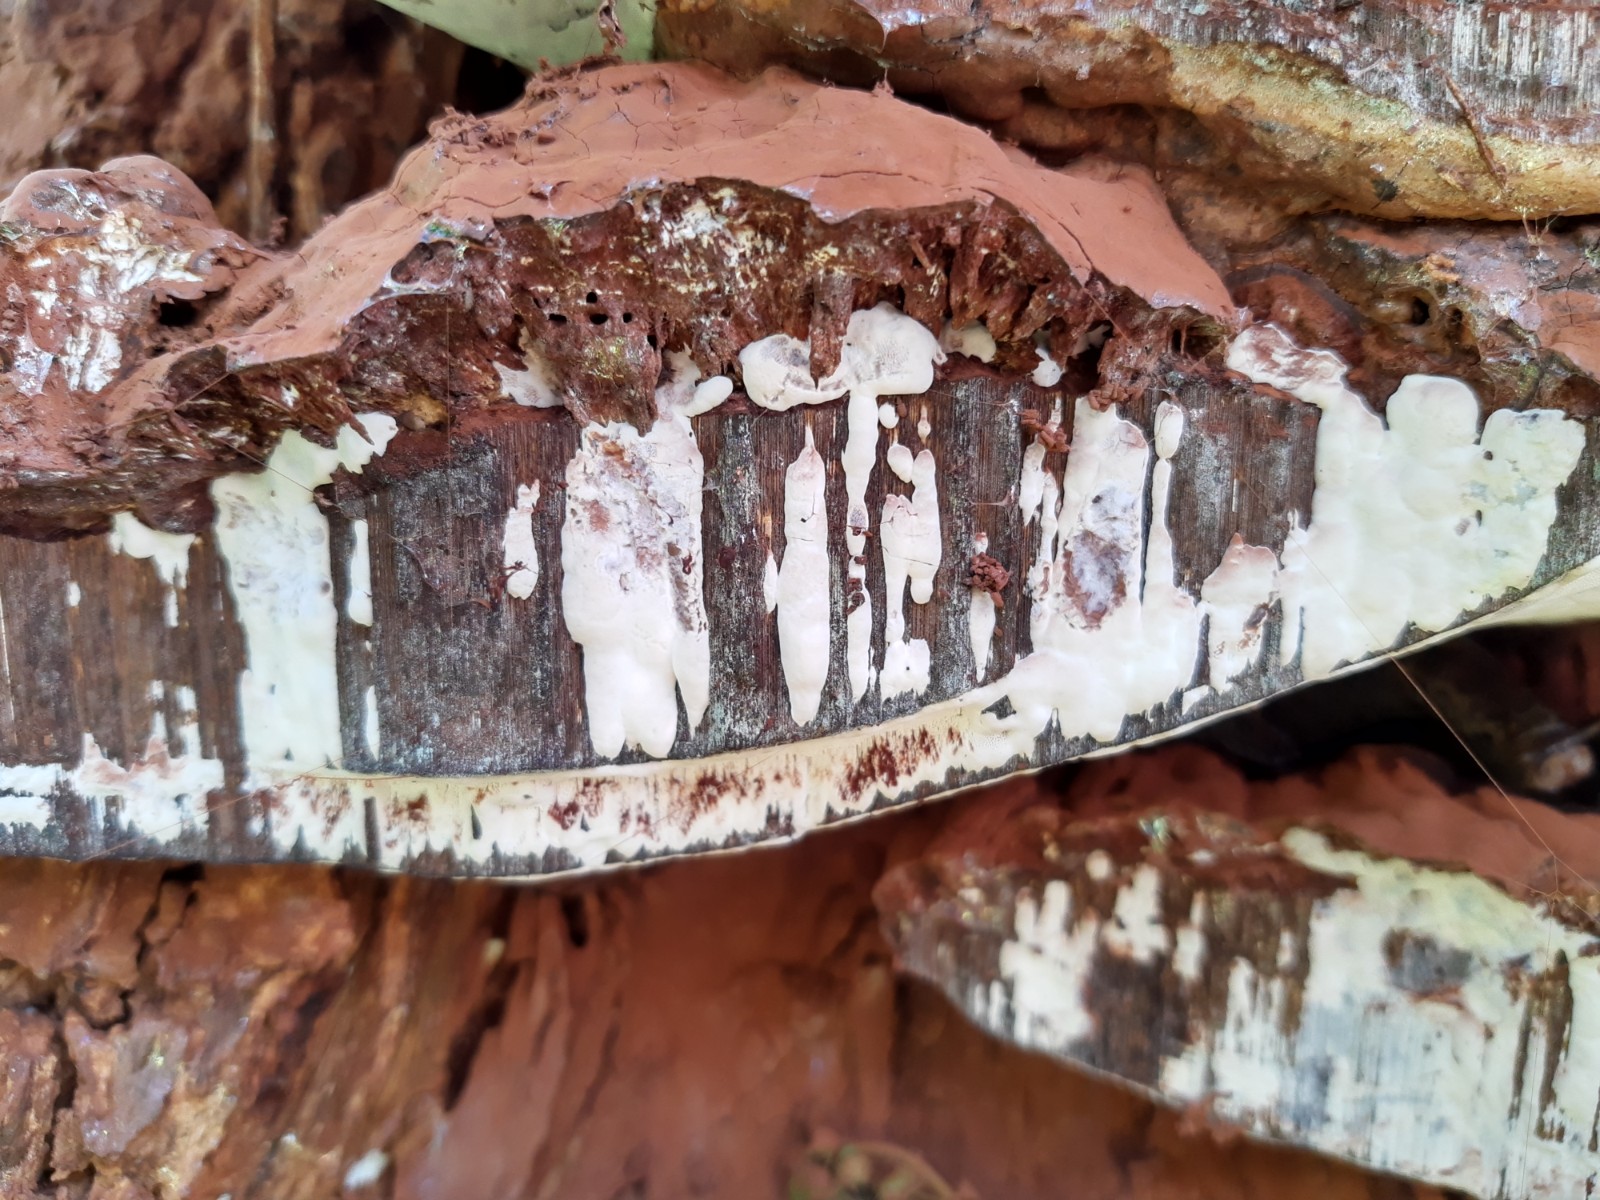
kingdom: Fungi
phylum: Basidiomycota
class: Agaricomycetes
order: Polyporales
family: Polyporaceae
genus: Ganoderma
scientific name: Ganoderma applanatum
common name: flad lakporesvamp
